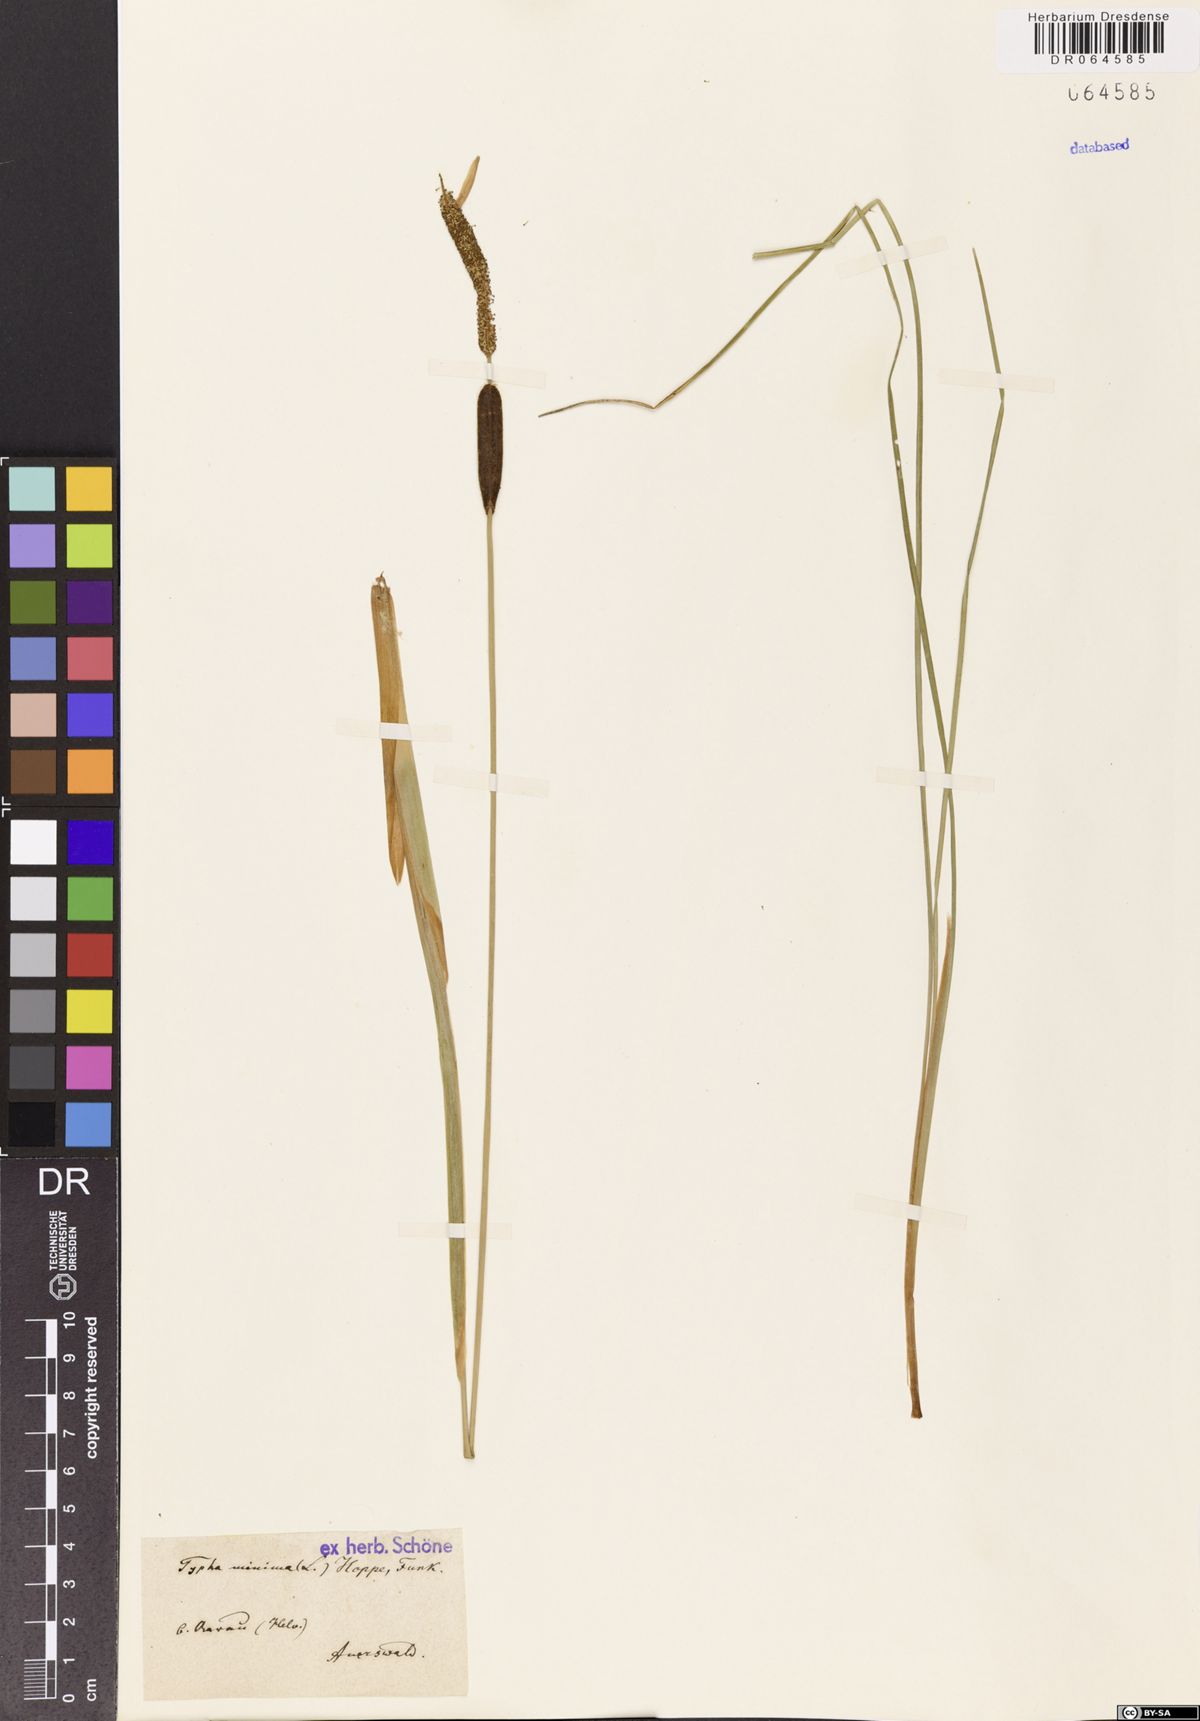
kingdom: Plantae
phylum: Tracheophyta
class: Liliopsida
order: Poales
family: Typhaceae
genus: Typha
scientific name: Typha minima
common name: Dwarf bulrush
